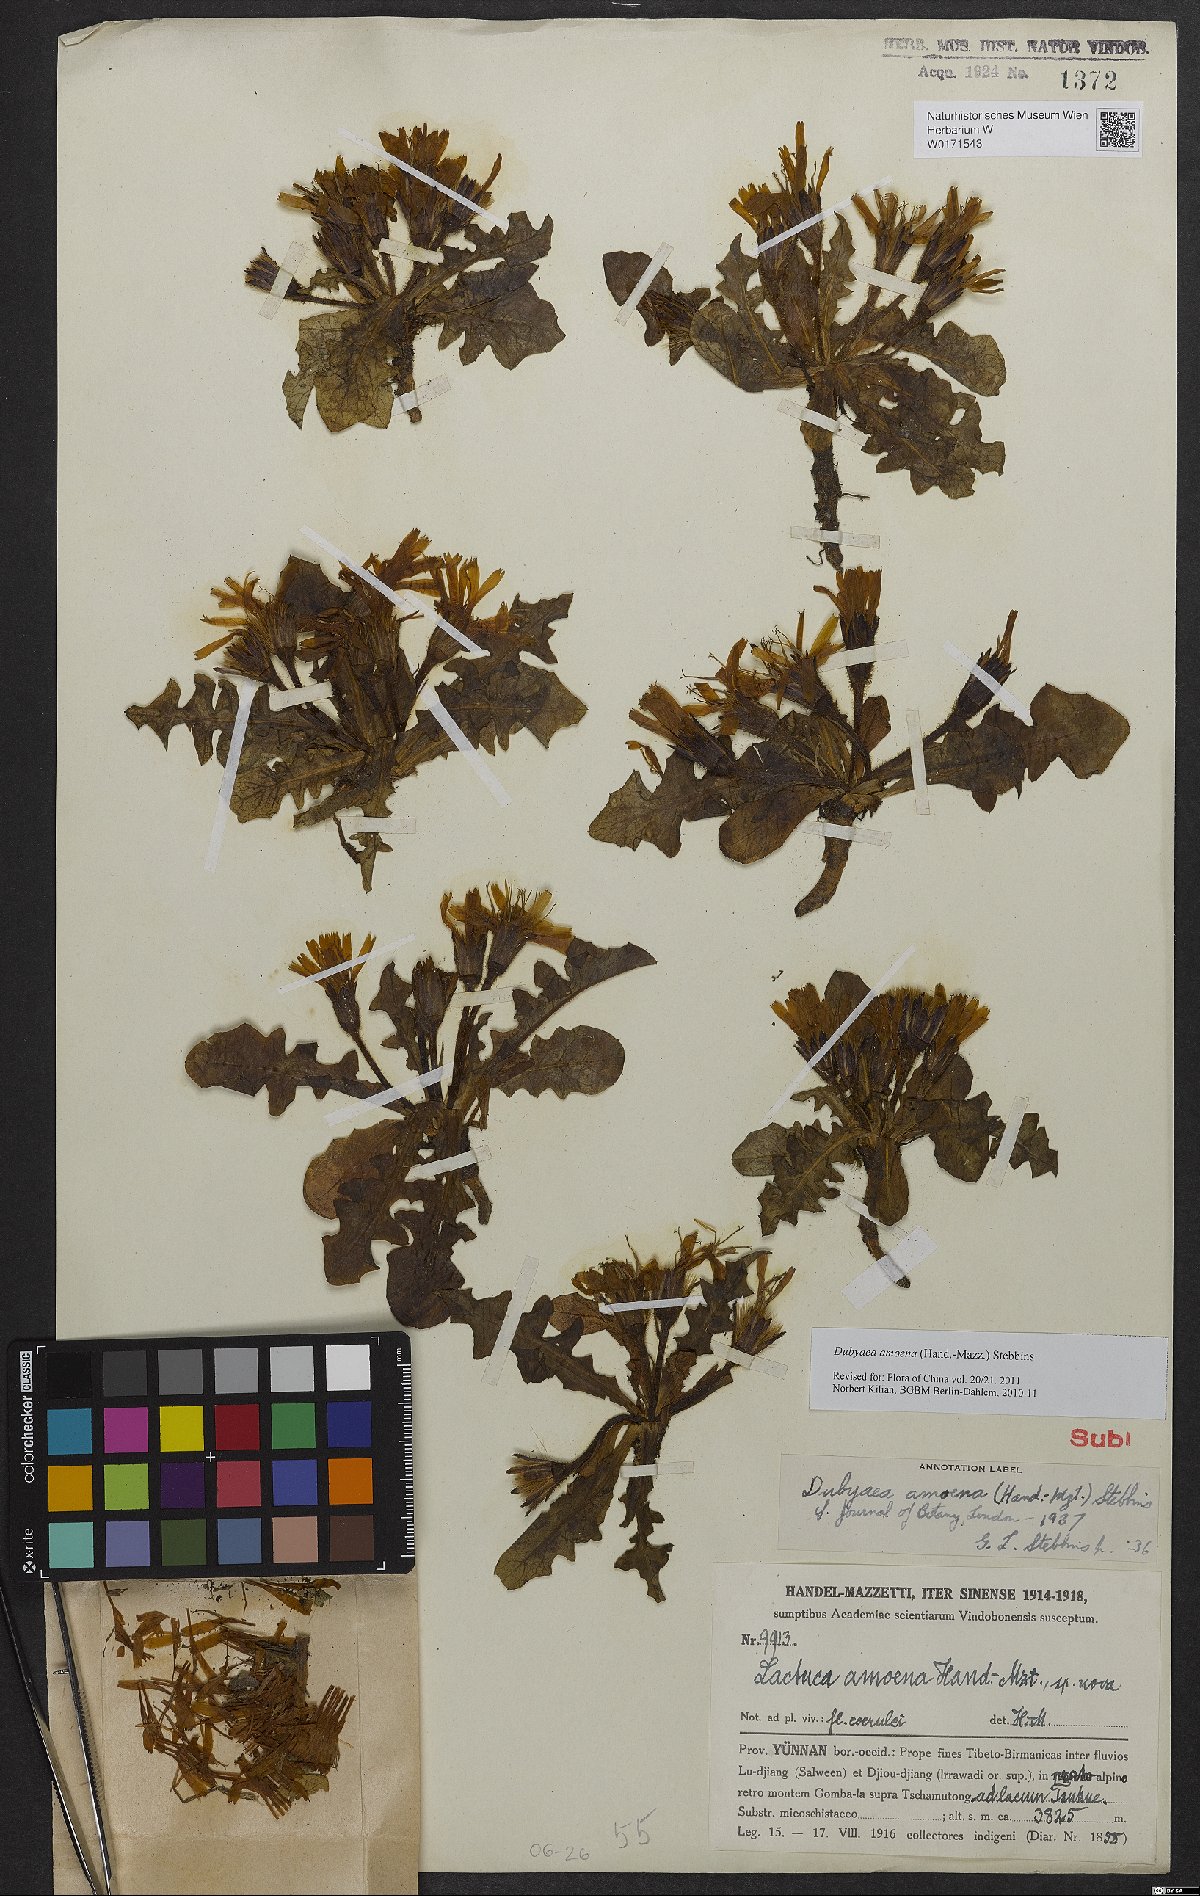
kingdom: Plantae
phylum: Tracheophyta
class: Magnoliopsida
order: Asterales
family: Asteraceae
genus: Lihengia
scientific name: Lihengia amoena
